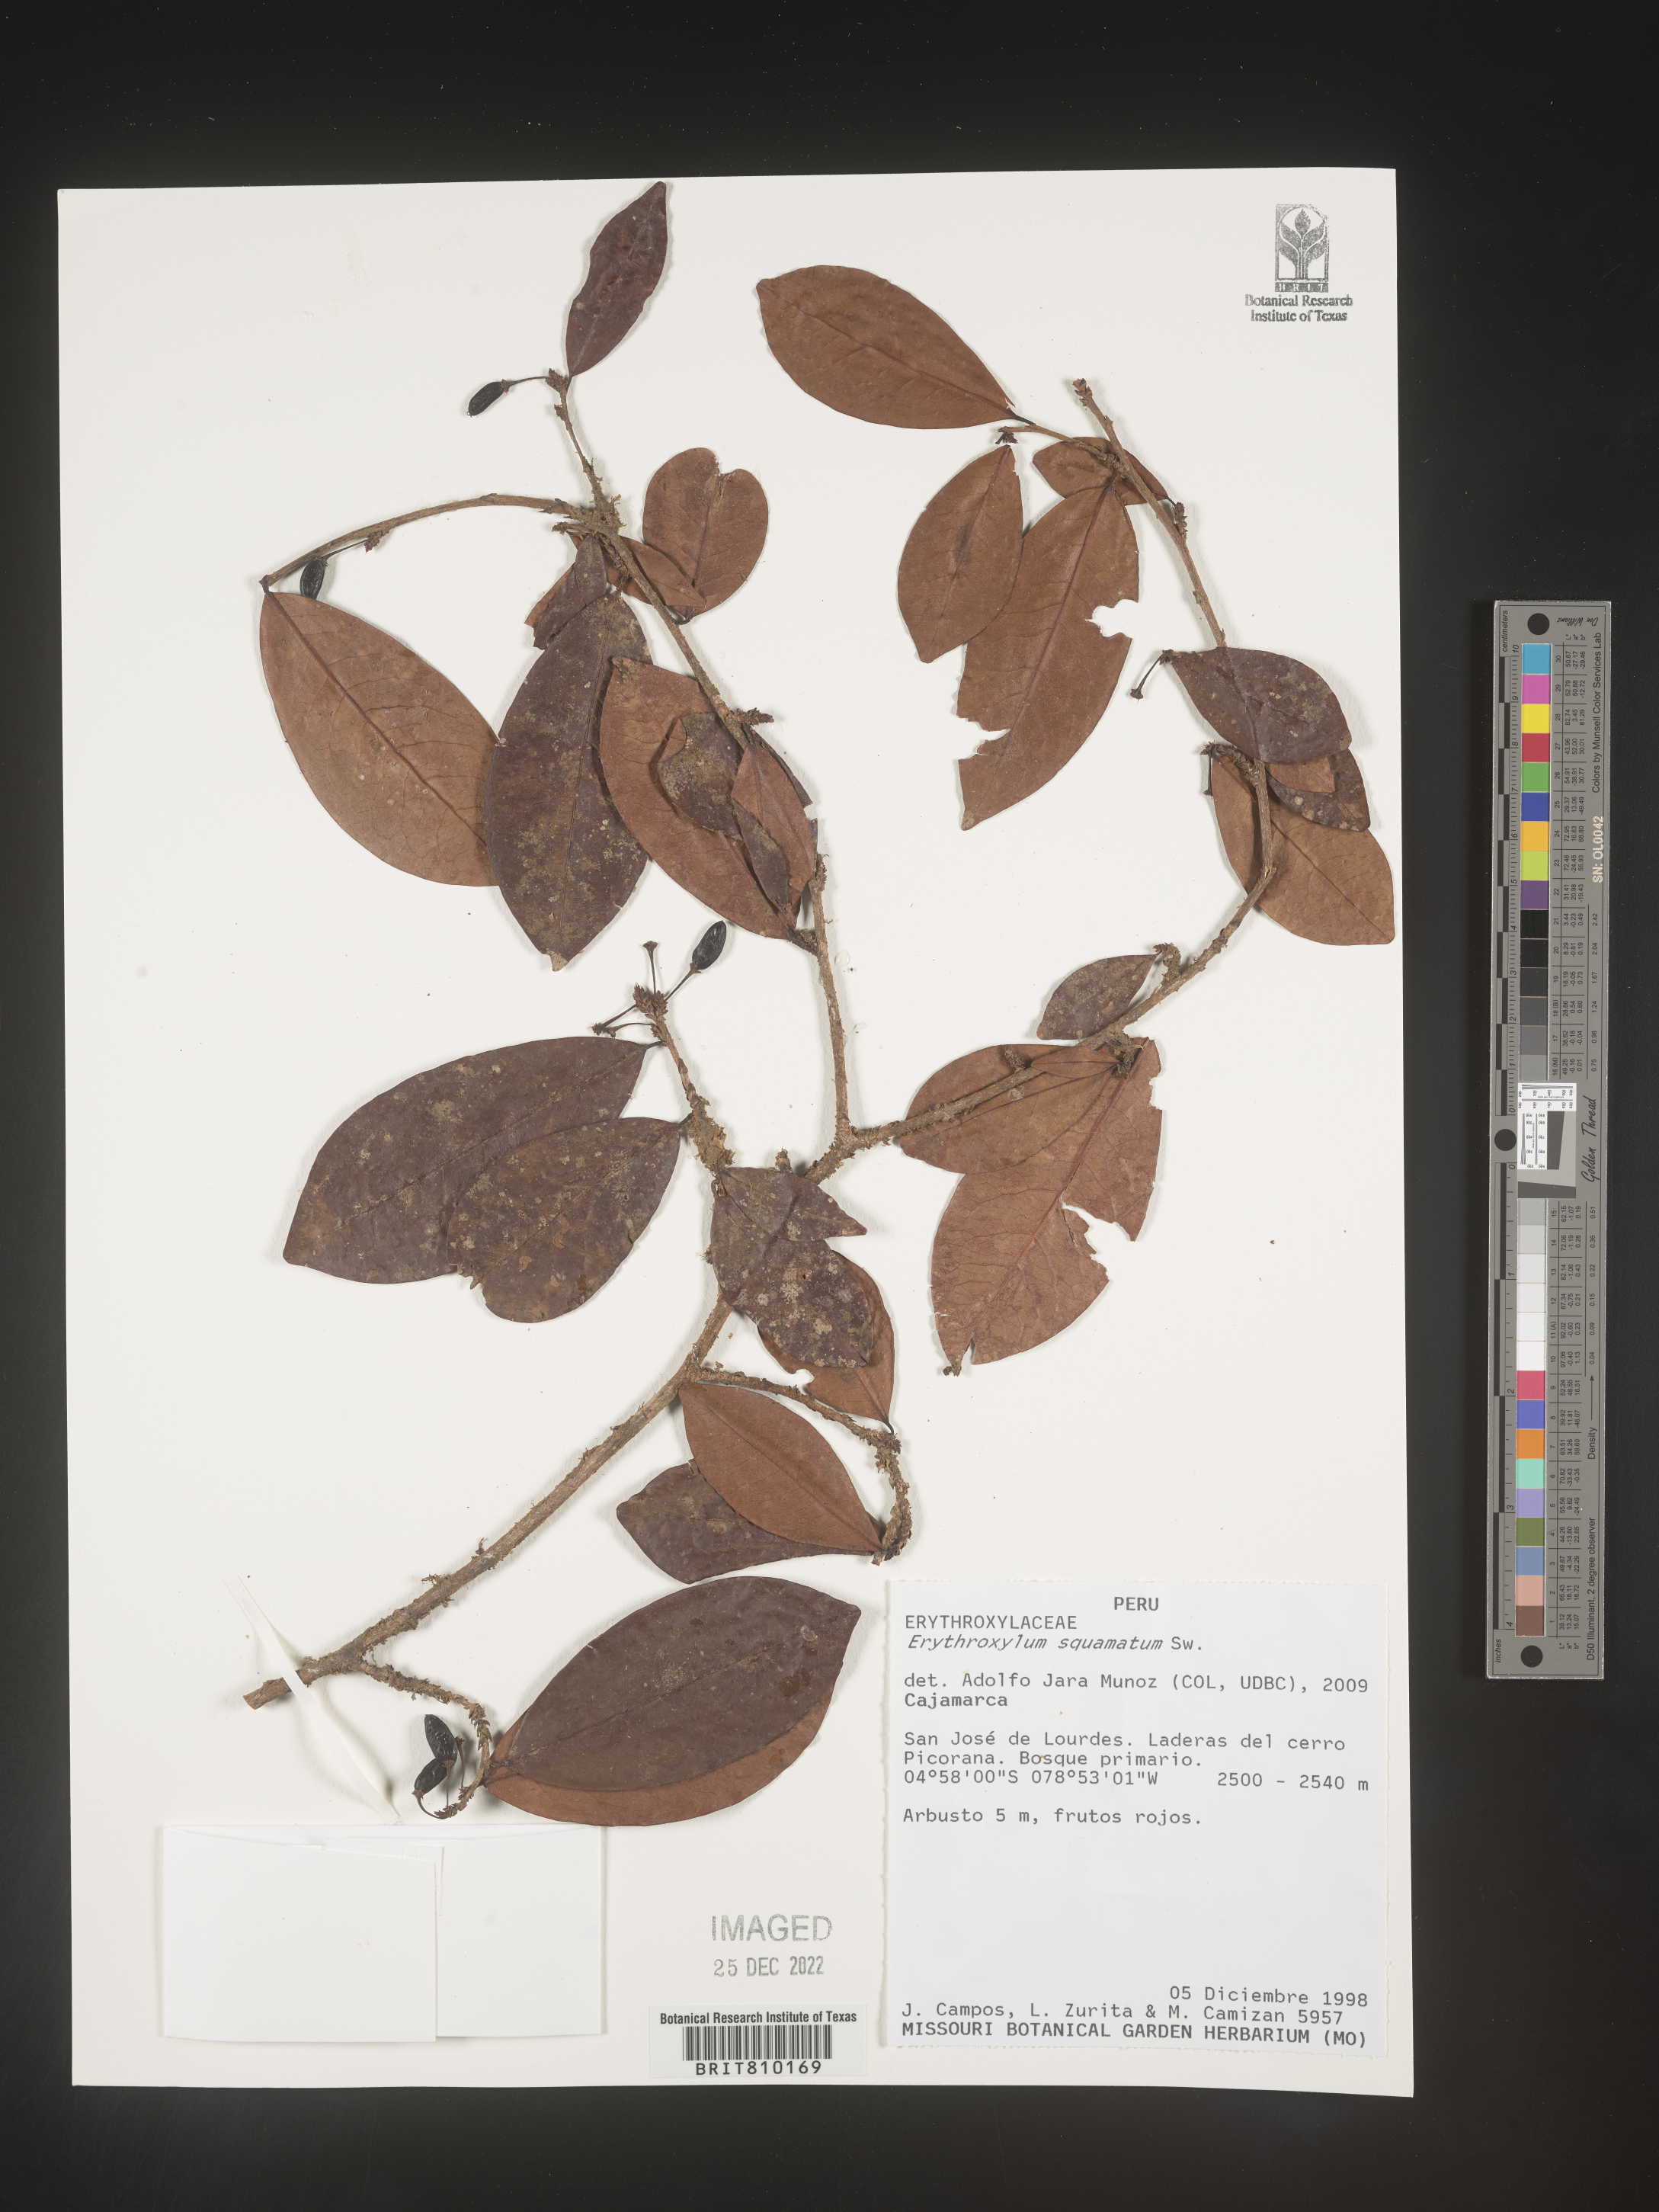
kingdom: Plantae
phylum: Tracheophyta
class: Magnoliopsida
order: Malpighiales
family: Erythroxylaceae
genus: Erythroxylum
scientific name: Erythroxylum
